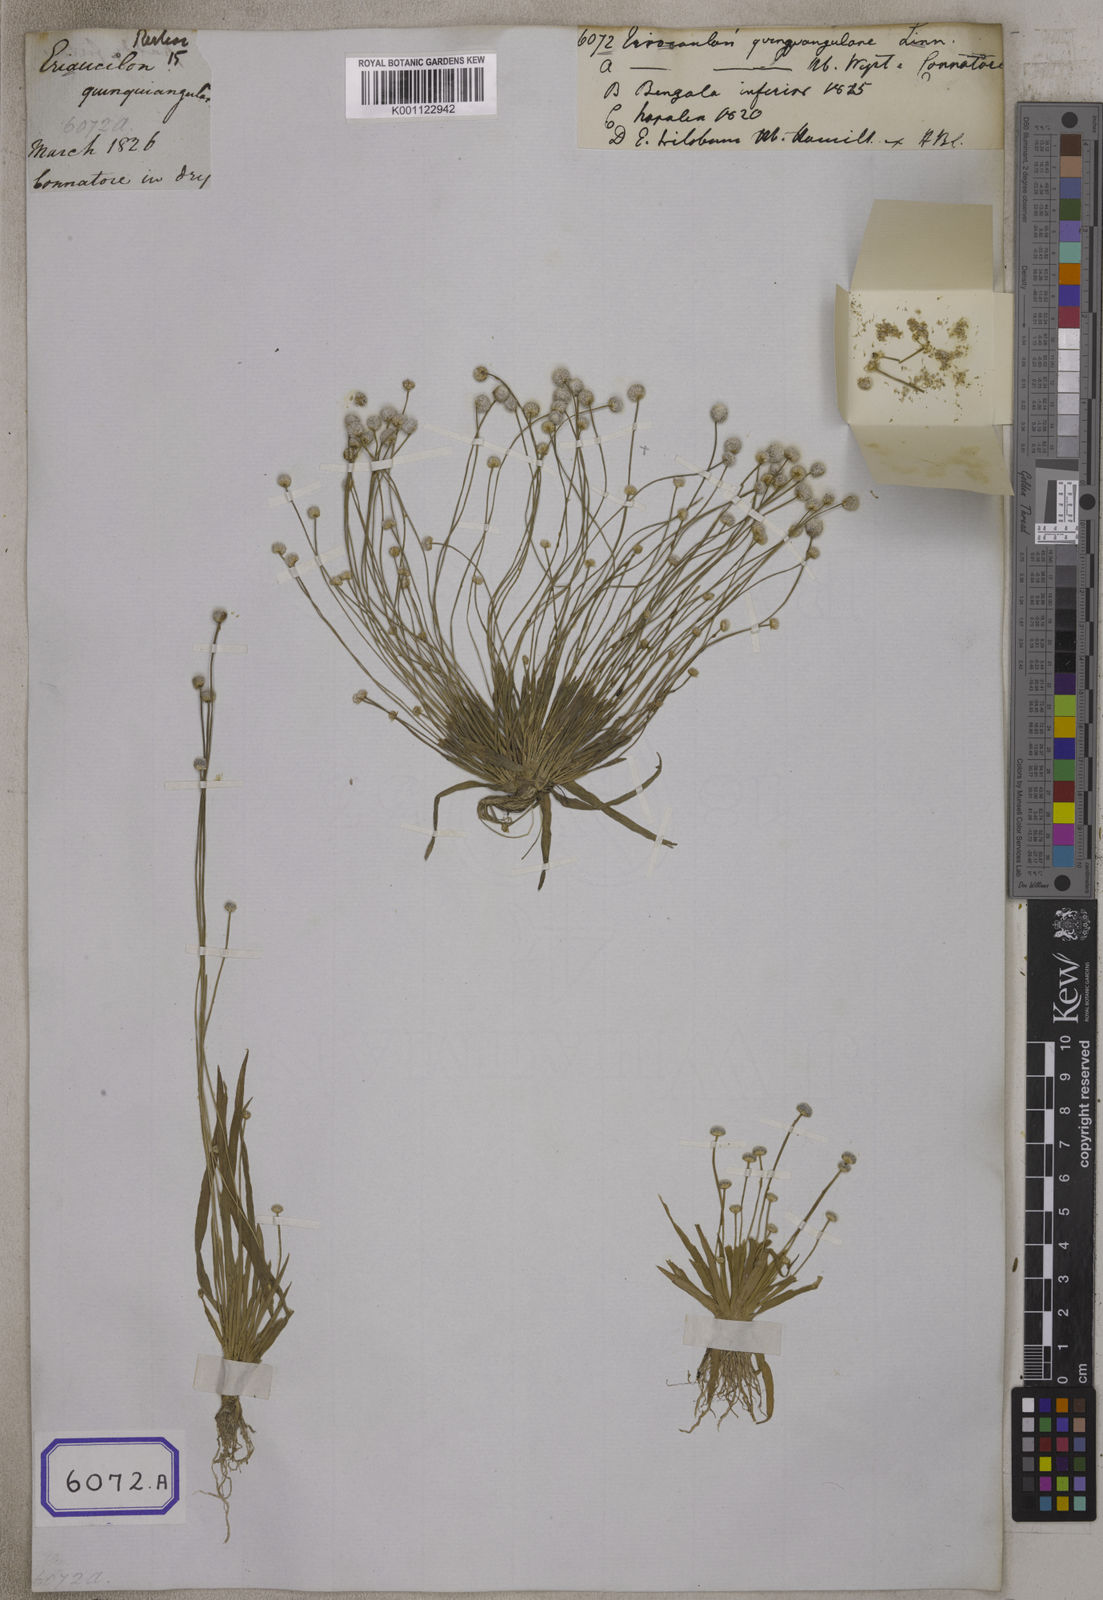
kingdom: Plantae
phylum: Tracheophyta
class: Liliopsida
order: Poales
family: Eriocaulaceae
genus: Eriocaulon
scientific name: Eriocaulon quinquangulare
